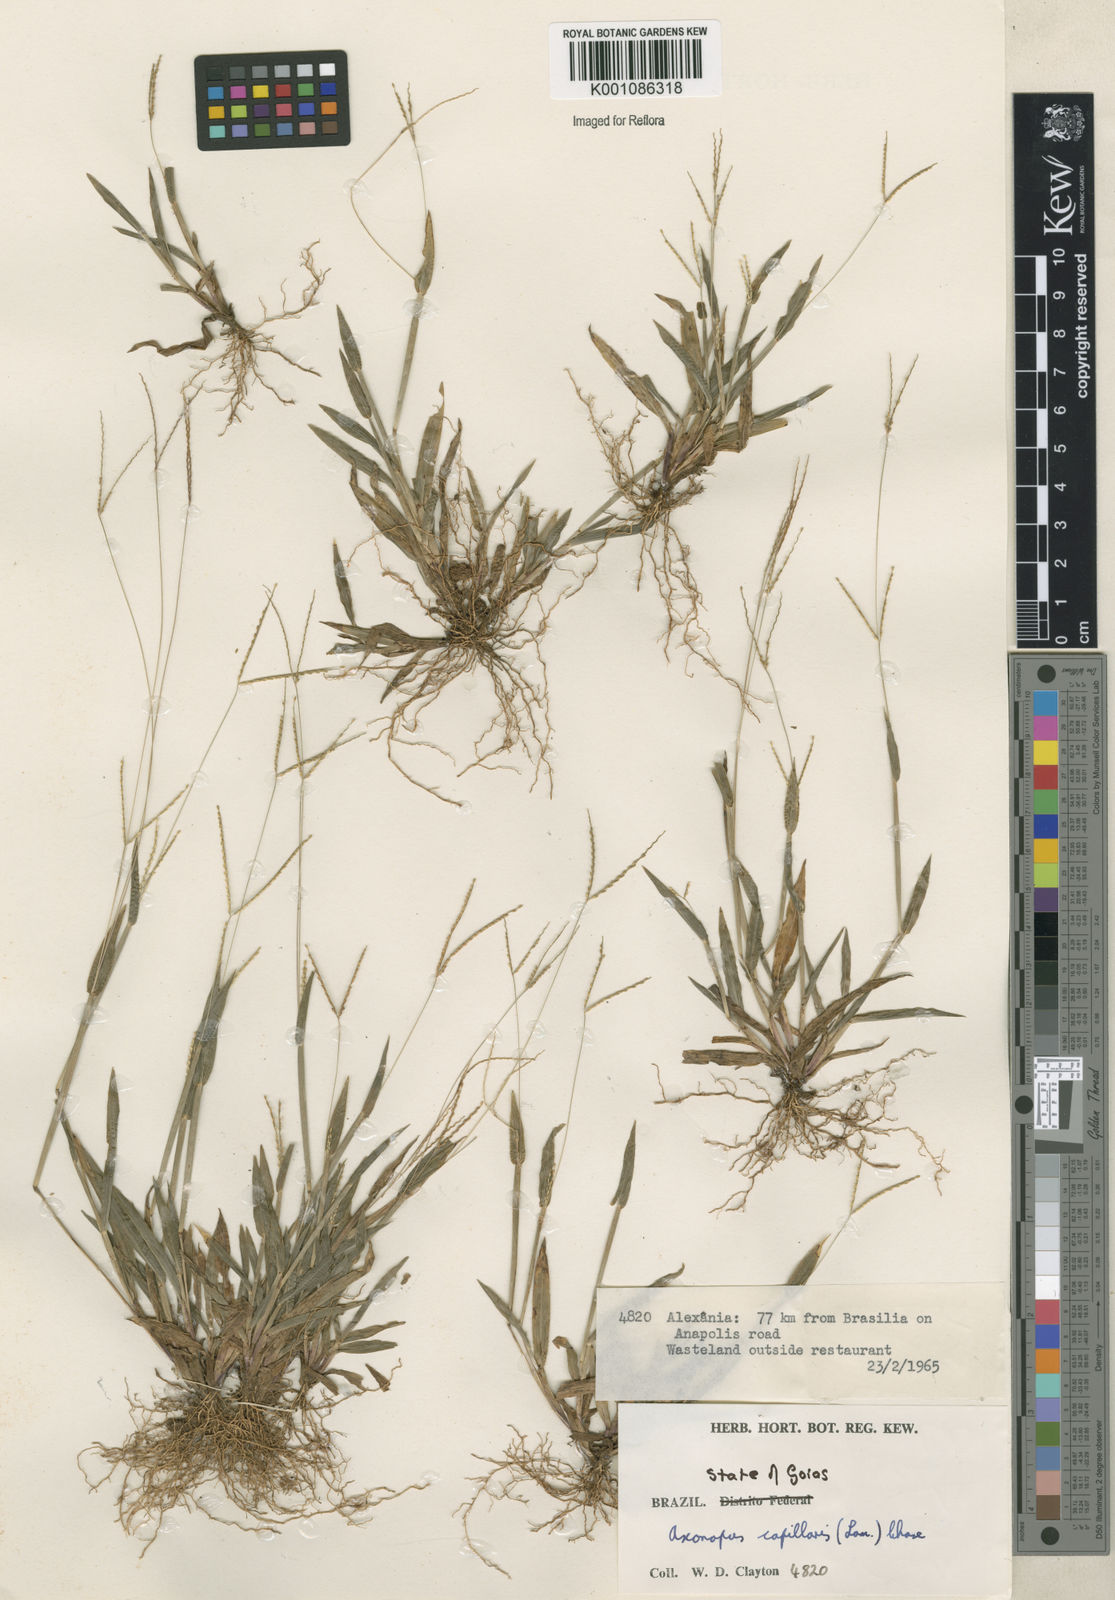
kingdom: Plantae
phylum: Tracheophyta
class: Liliopsida
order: Poales
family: Poaceae
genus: Axonopus
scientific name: Axonopus capillaris
